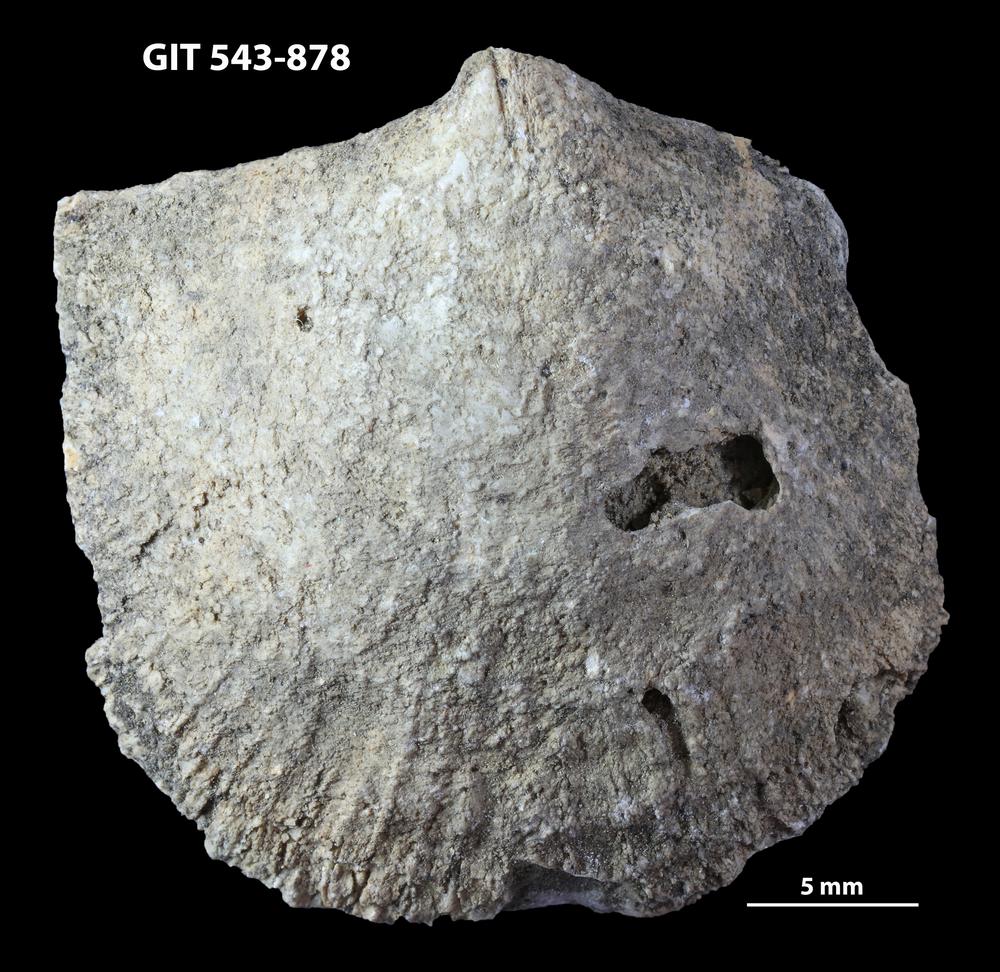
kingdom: Animalia
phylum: Brachiopoda
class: Rhynchonellata
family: Clitambonitidae
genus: Vellamo
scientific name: Vellamo
